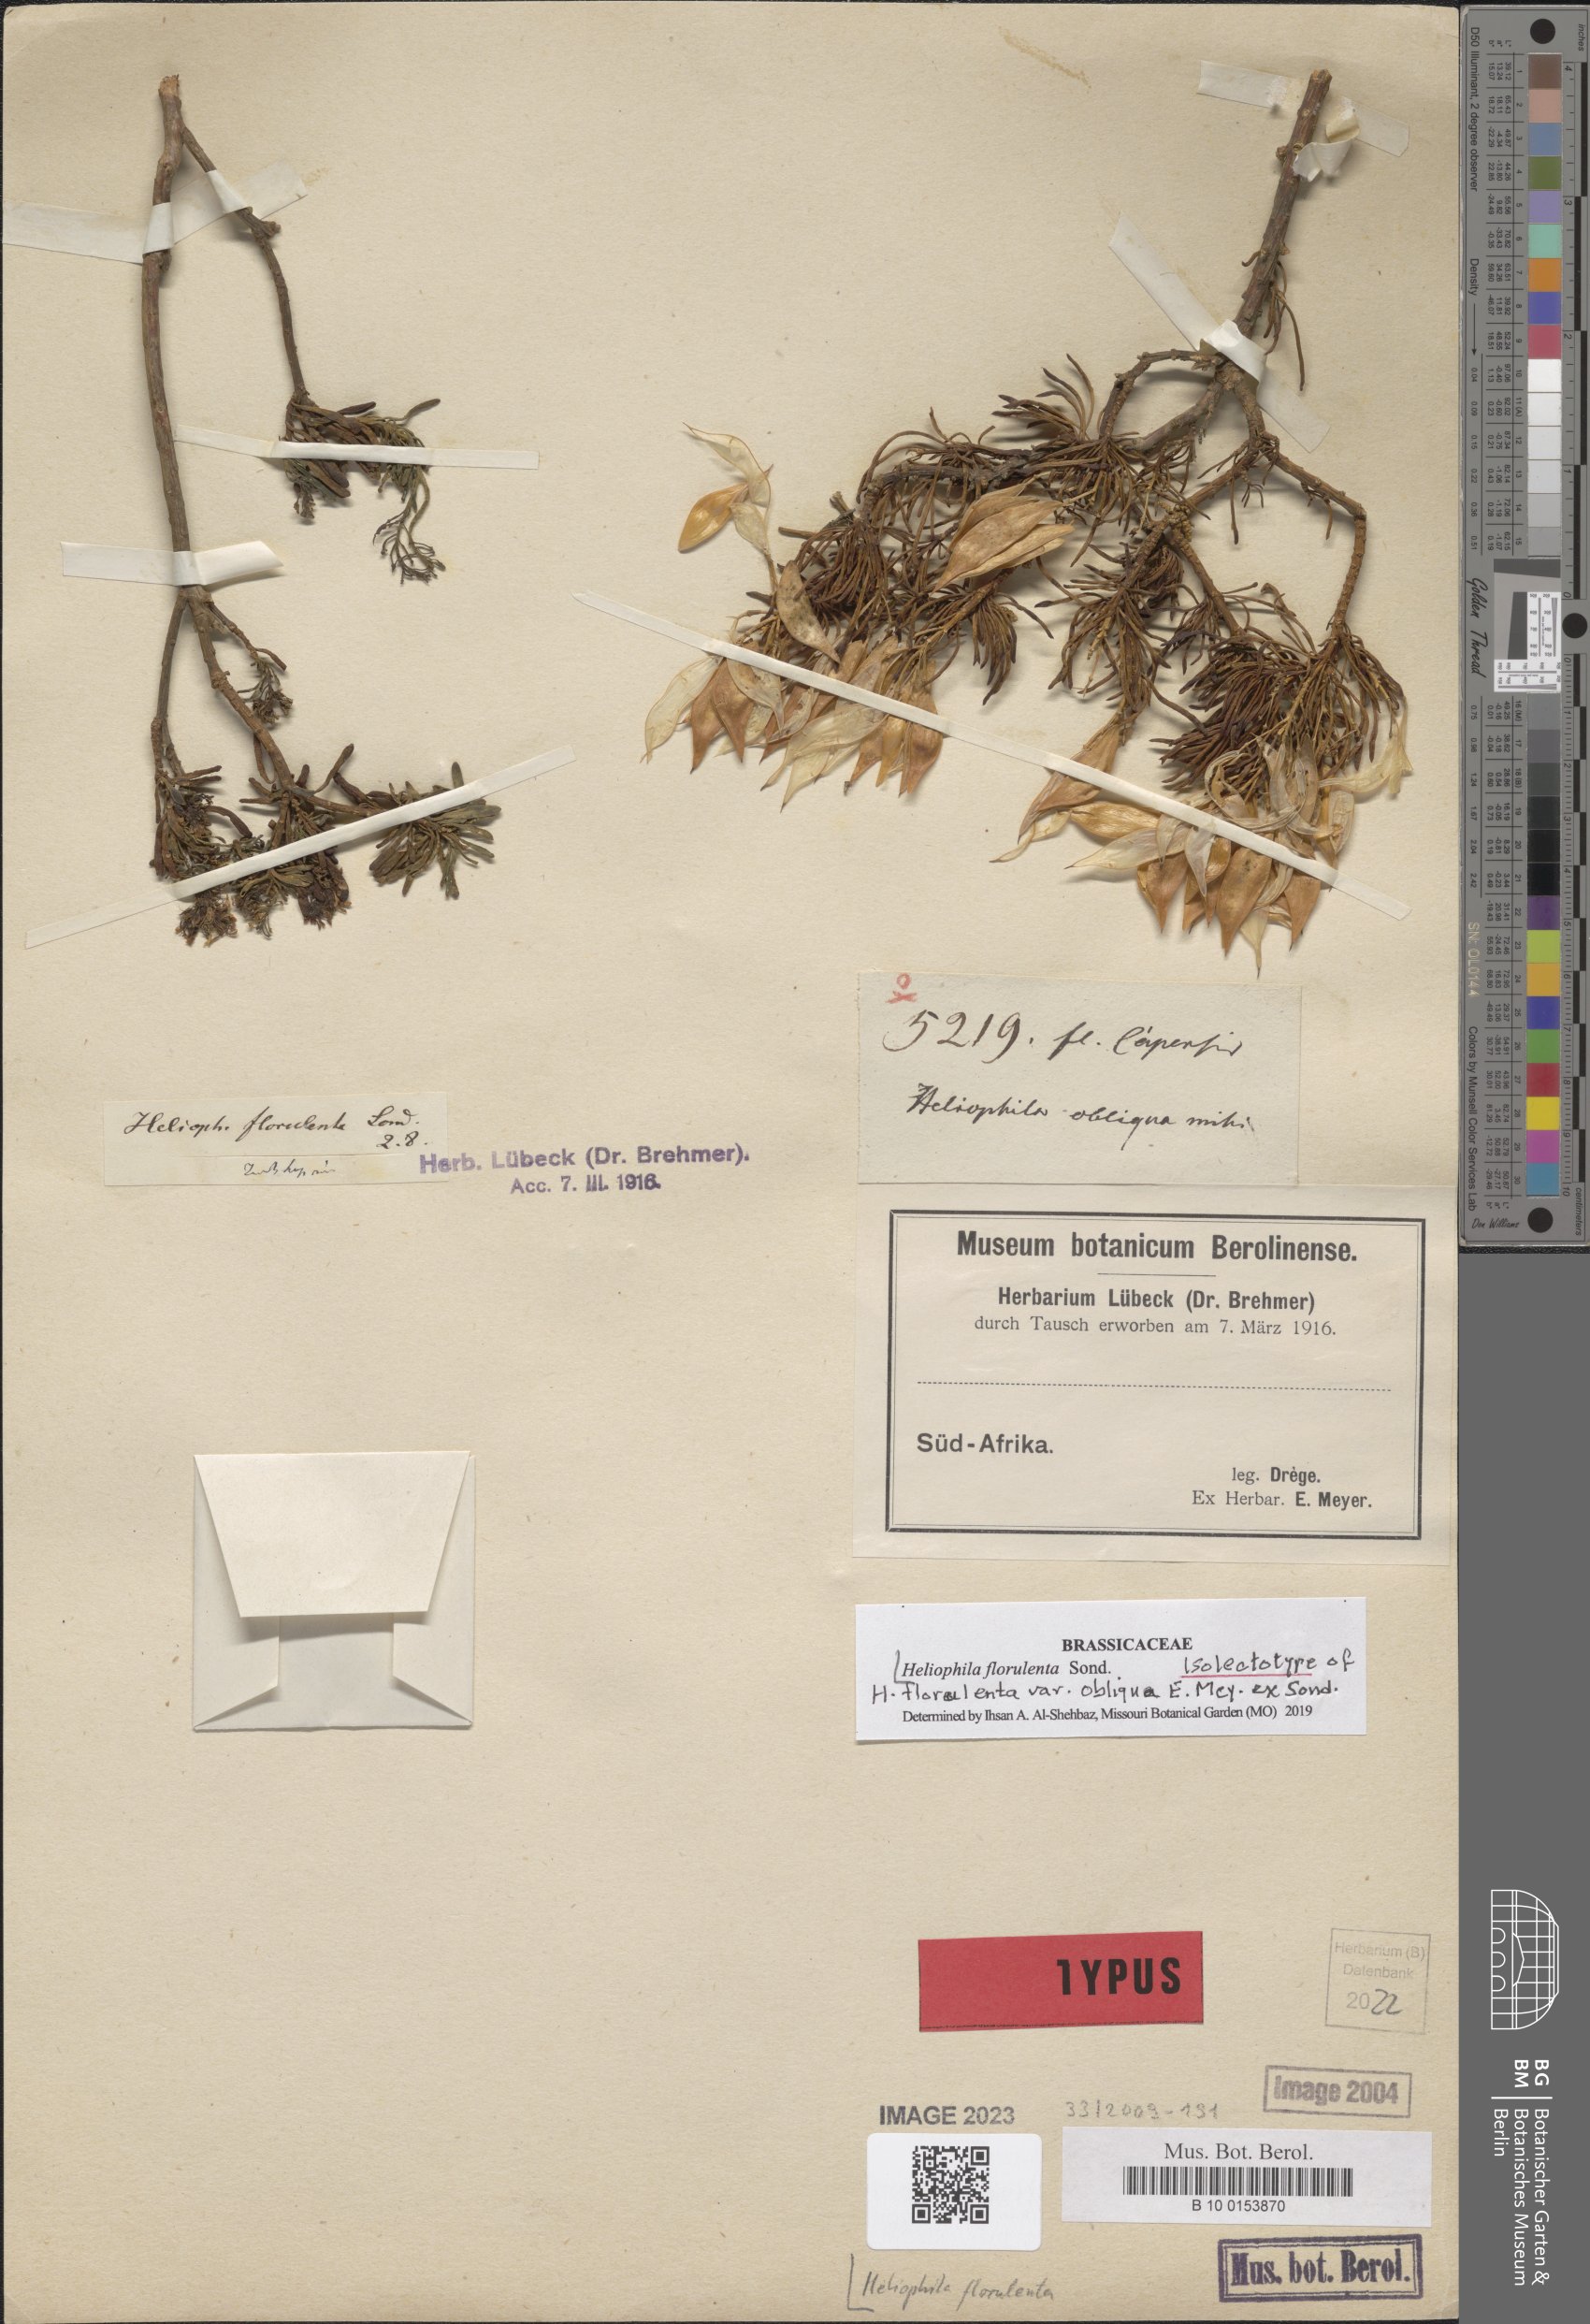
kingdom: Plantae
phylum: Tracheophyta
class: Magnoliopsida
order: Brassicales
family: Brassicaceae
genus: Heliophila
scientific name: Heliophila brachycarpa
